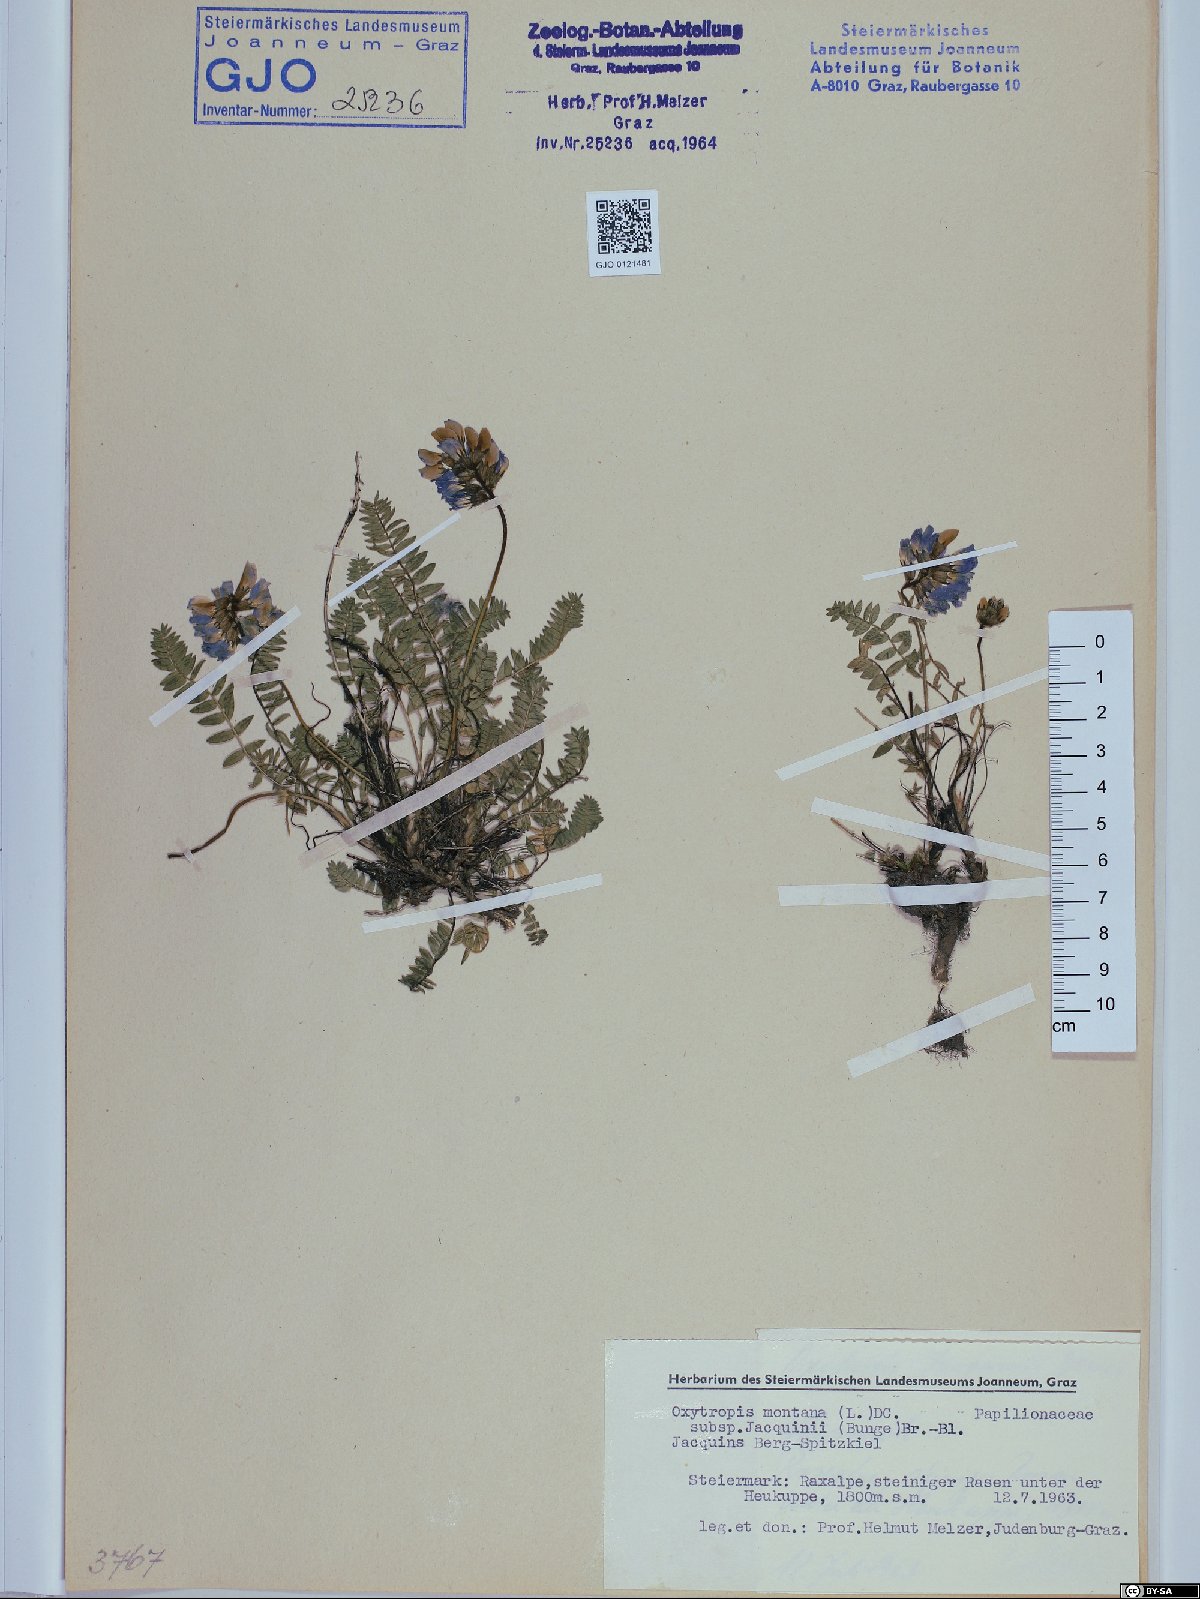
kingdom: Plantae
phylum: Tracheophyta
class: Magnoliopsida
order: Fabales
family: Fabaceae
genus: Oxytropis
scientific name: Oxytropis montana
